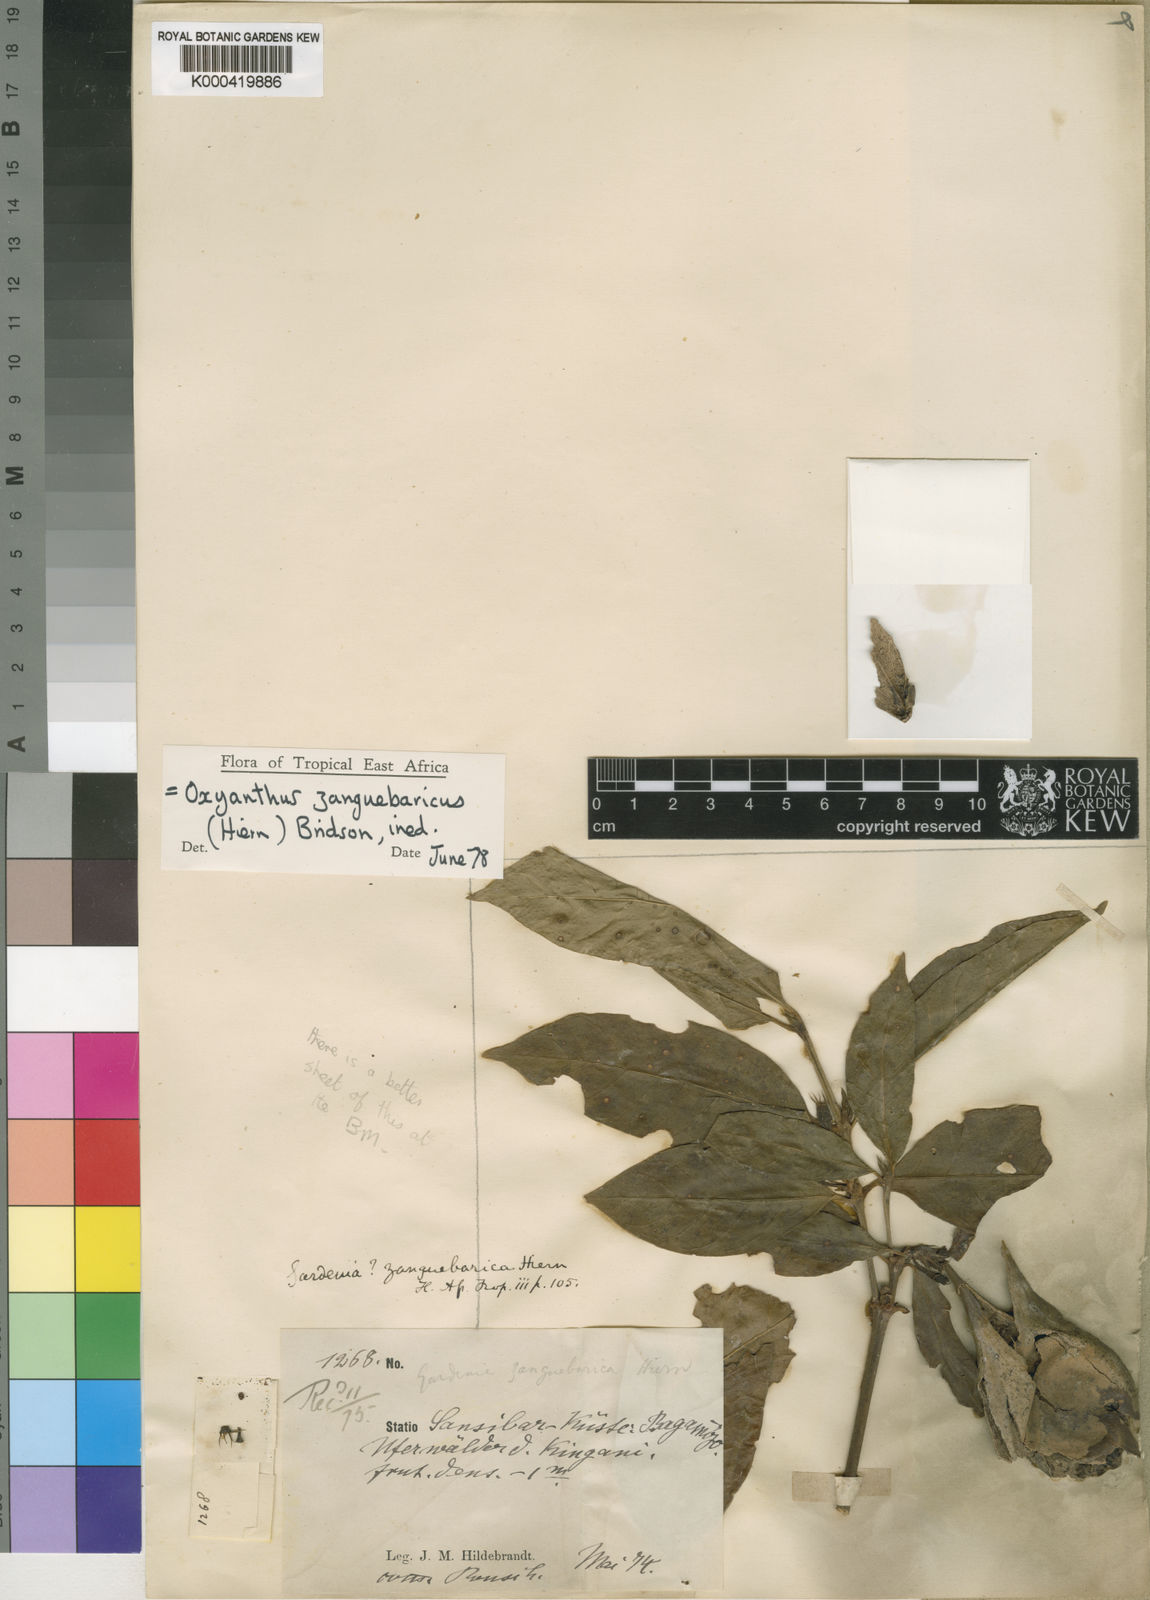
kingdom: Plantae
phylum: Tracheophyta
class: Magnoliopsida
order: Gentianales
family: Rubiaceae
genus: Oxyanthus
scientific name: Oxyanthus zanguebaricus
